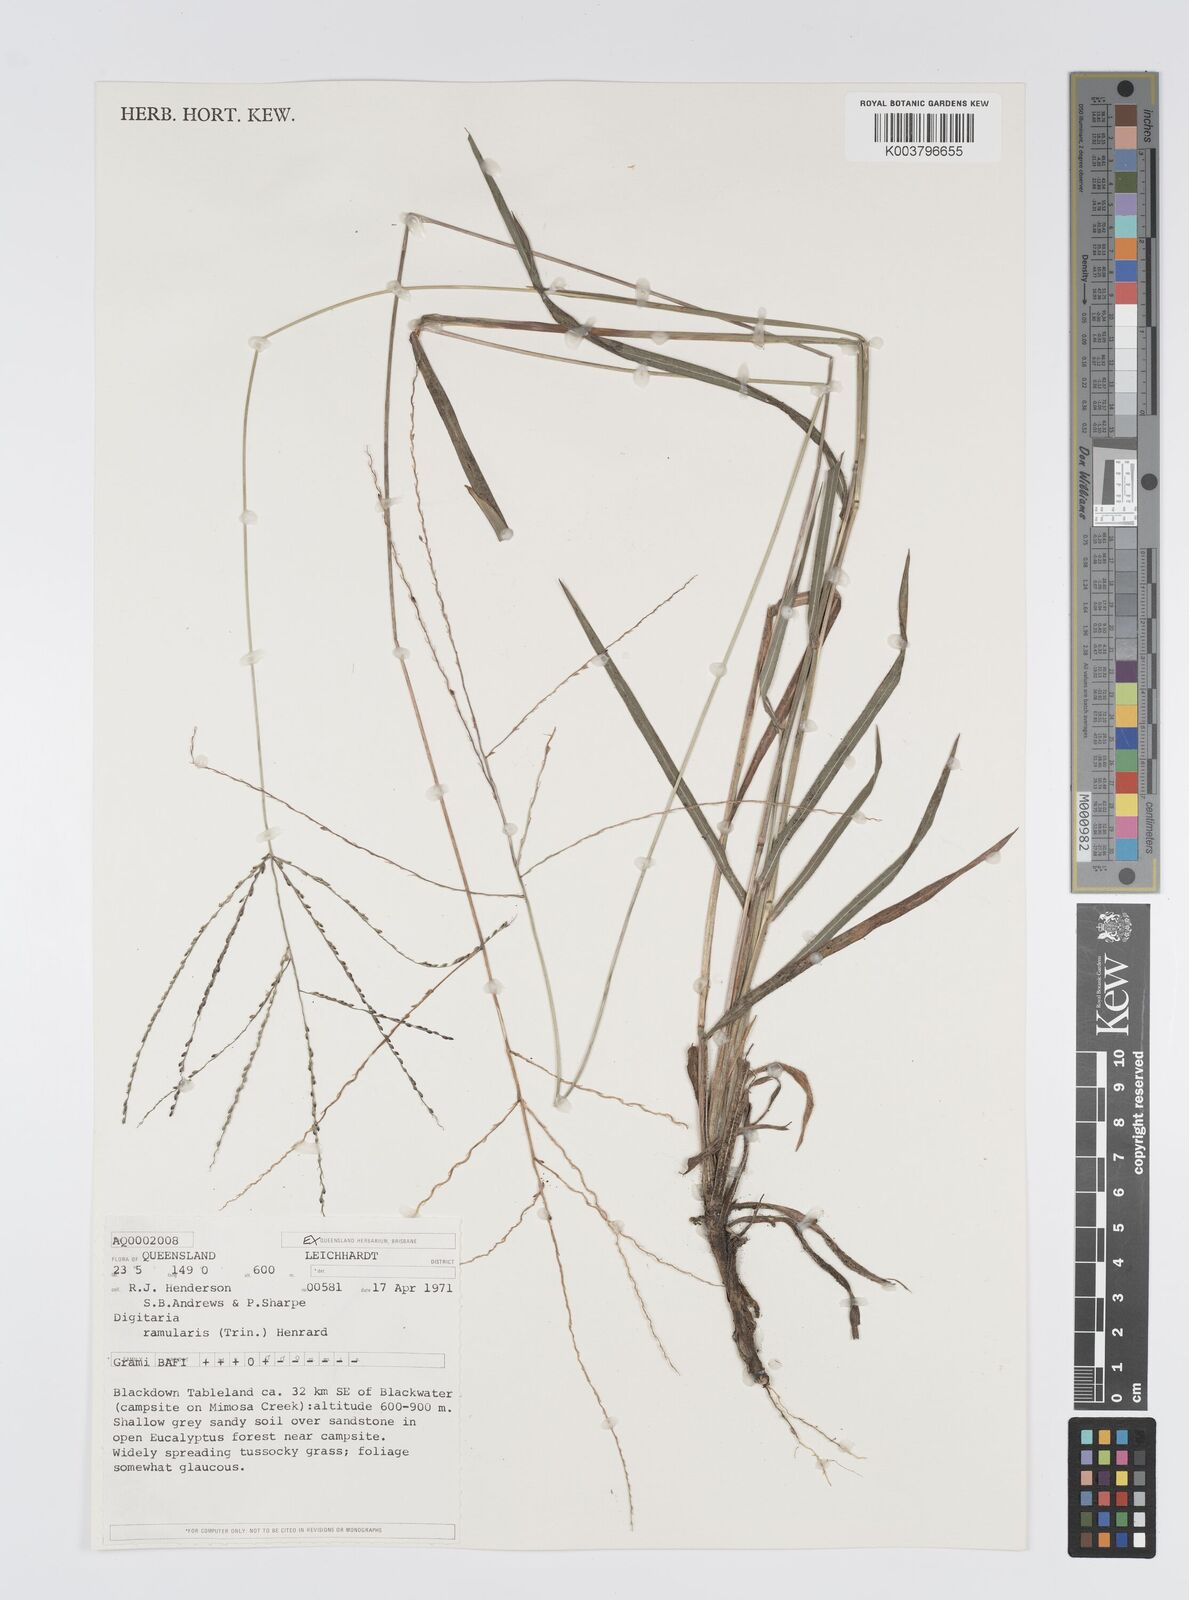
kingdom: Plantae
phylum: Tracheophyta
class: Liliopsida
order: Poales
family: Poaceae
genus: Digitaria
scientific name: Digitaria ramularis
